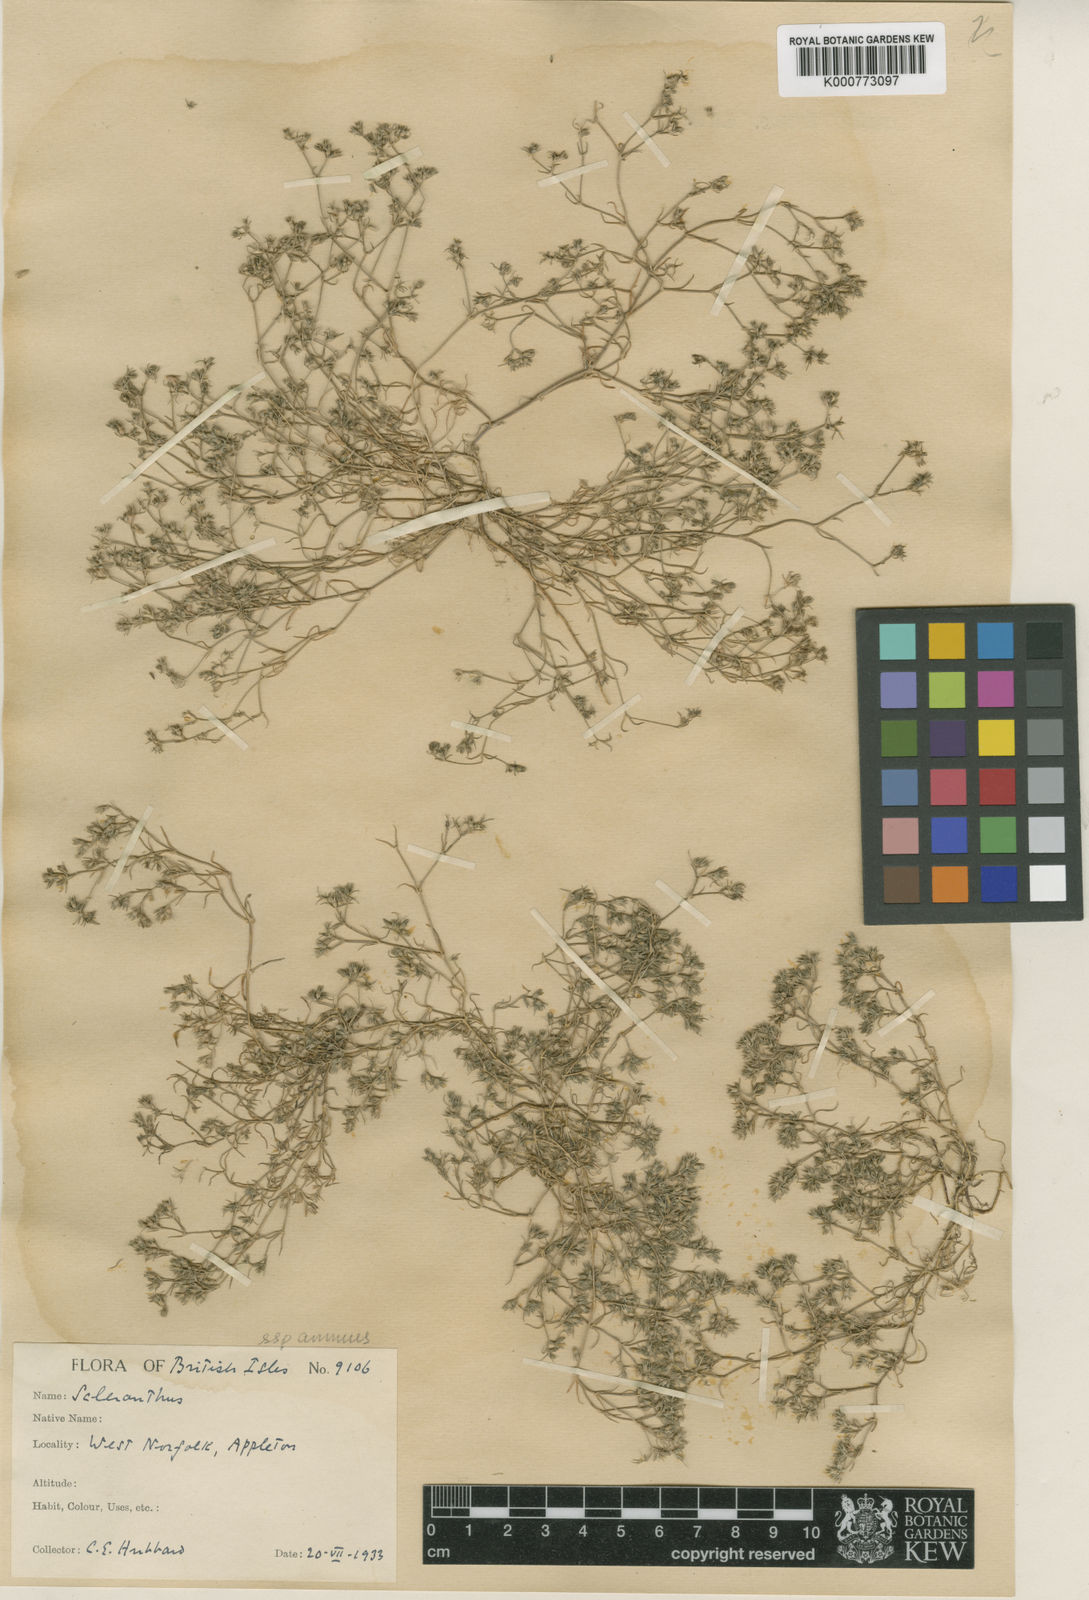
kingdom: Plantae
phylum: Tracheophyta
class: Magnoliopsida
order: Caryophyllales
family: Caryophyllaceae
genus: Scleranthus
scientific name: Scleranthus annuus
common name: Annual knawel
